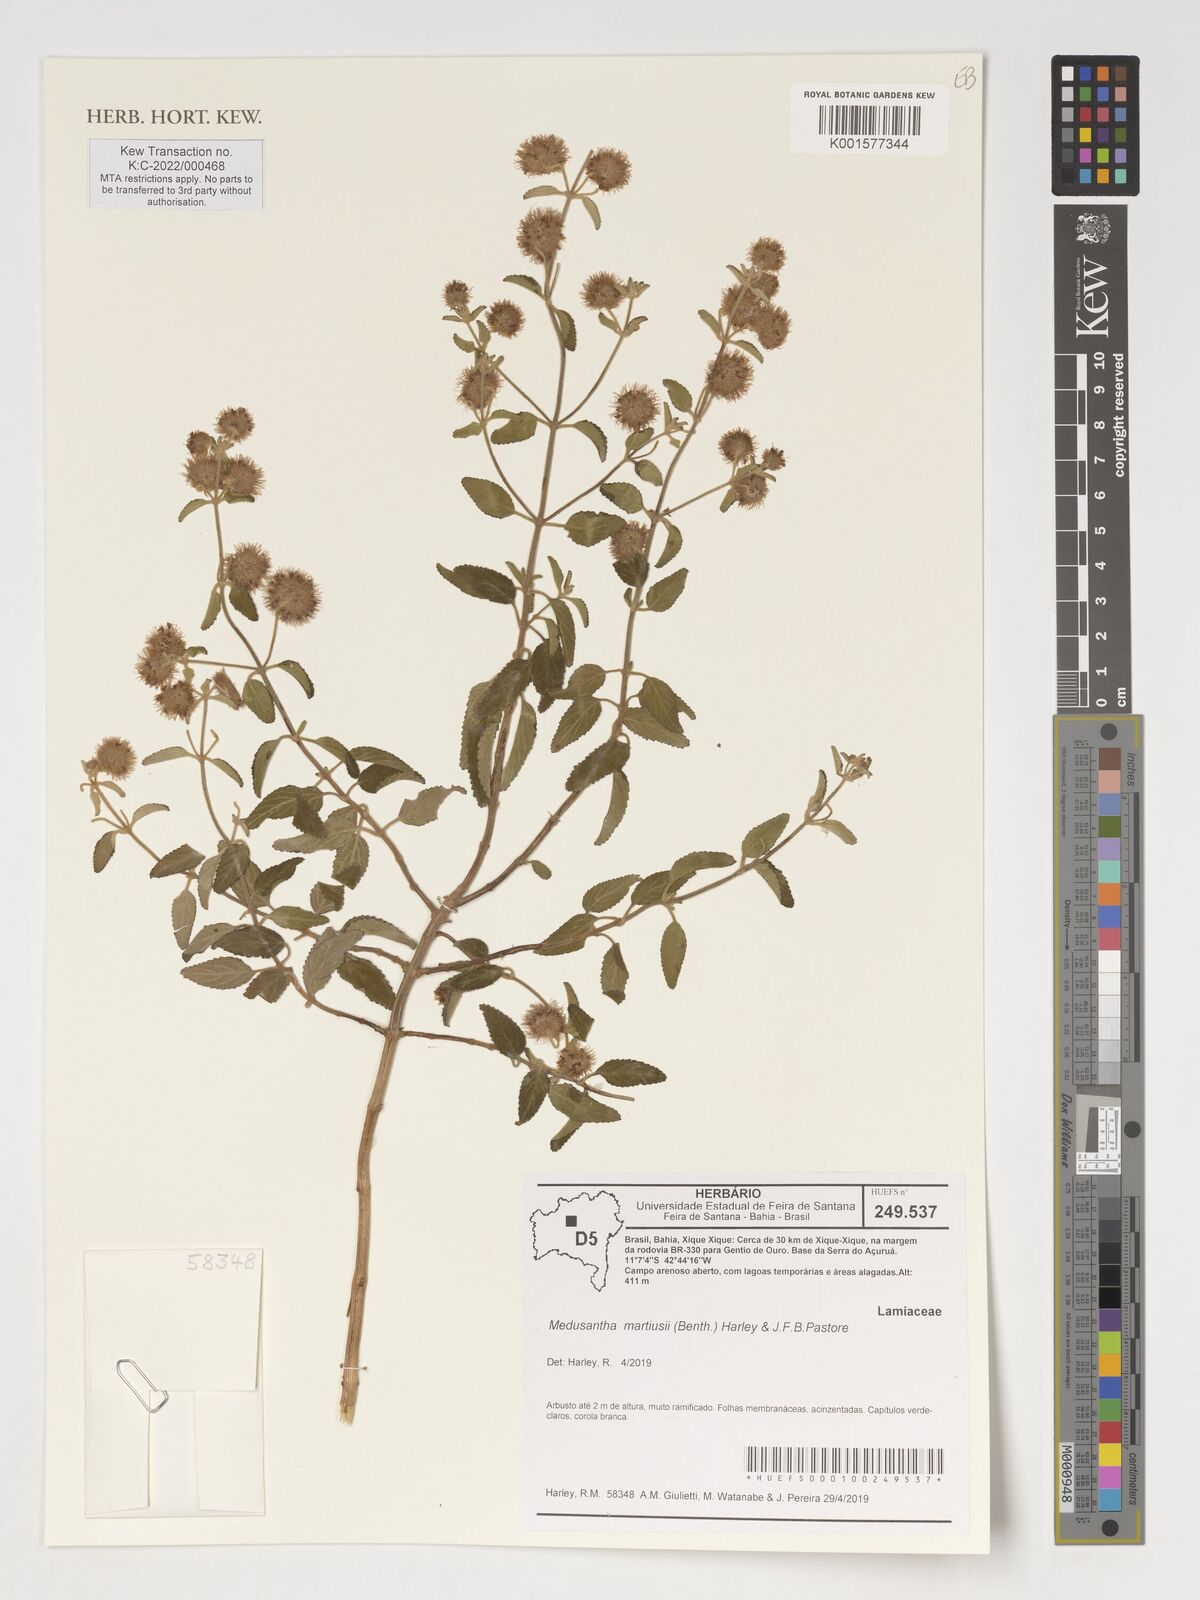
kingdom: Plantae
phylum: Tracheophyta
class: Magnoliopsida
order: Lamiales
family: Lamiaceae
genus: Medusantha
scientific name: Medusantha martiusii
